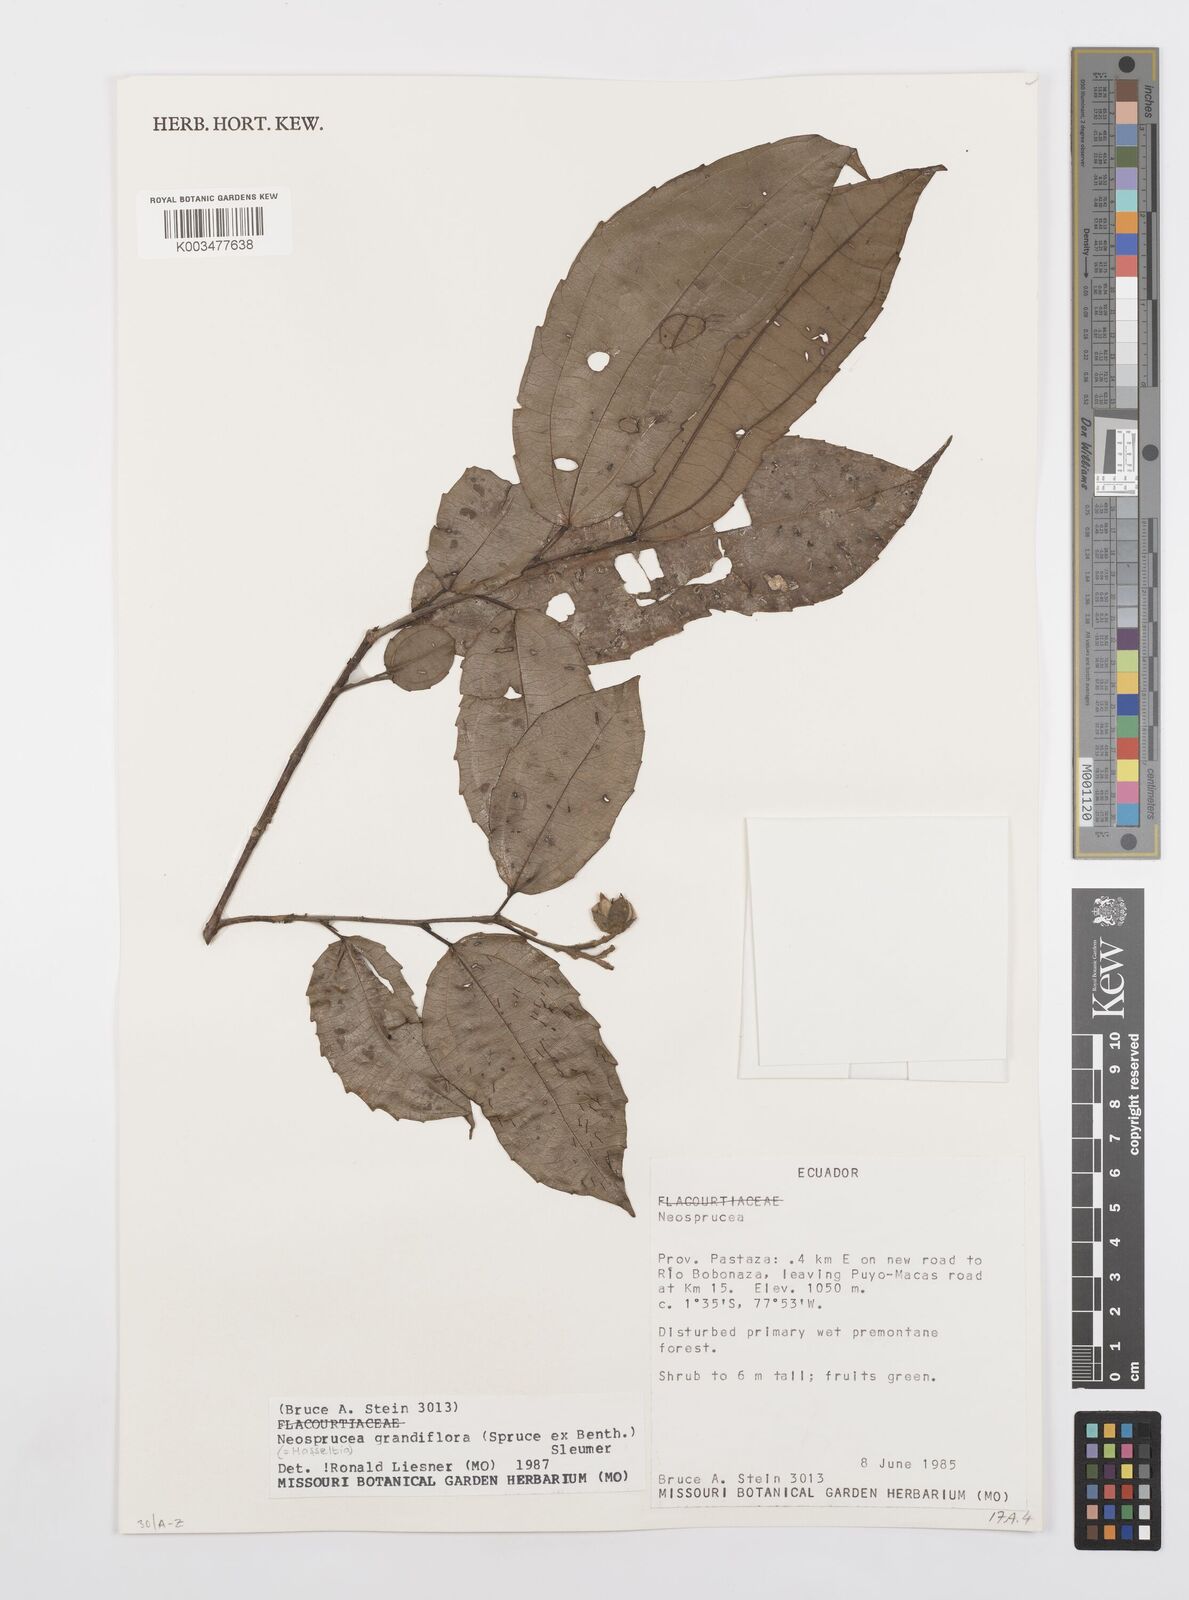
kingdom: Plantae
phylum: Tracheophyta
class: Magnoliopsida
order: Malpighiales
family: Salicaceae
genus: Neosprucea
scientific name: Neosprucea grandiflora
